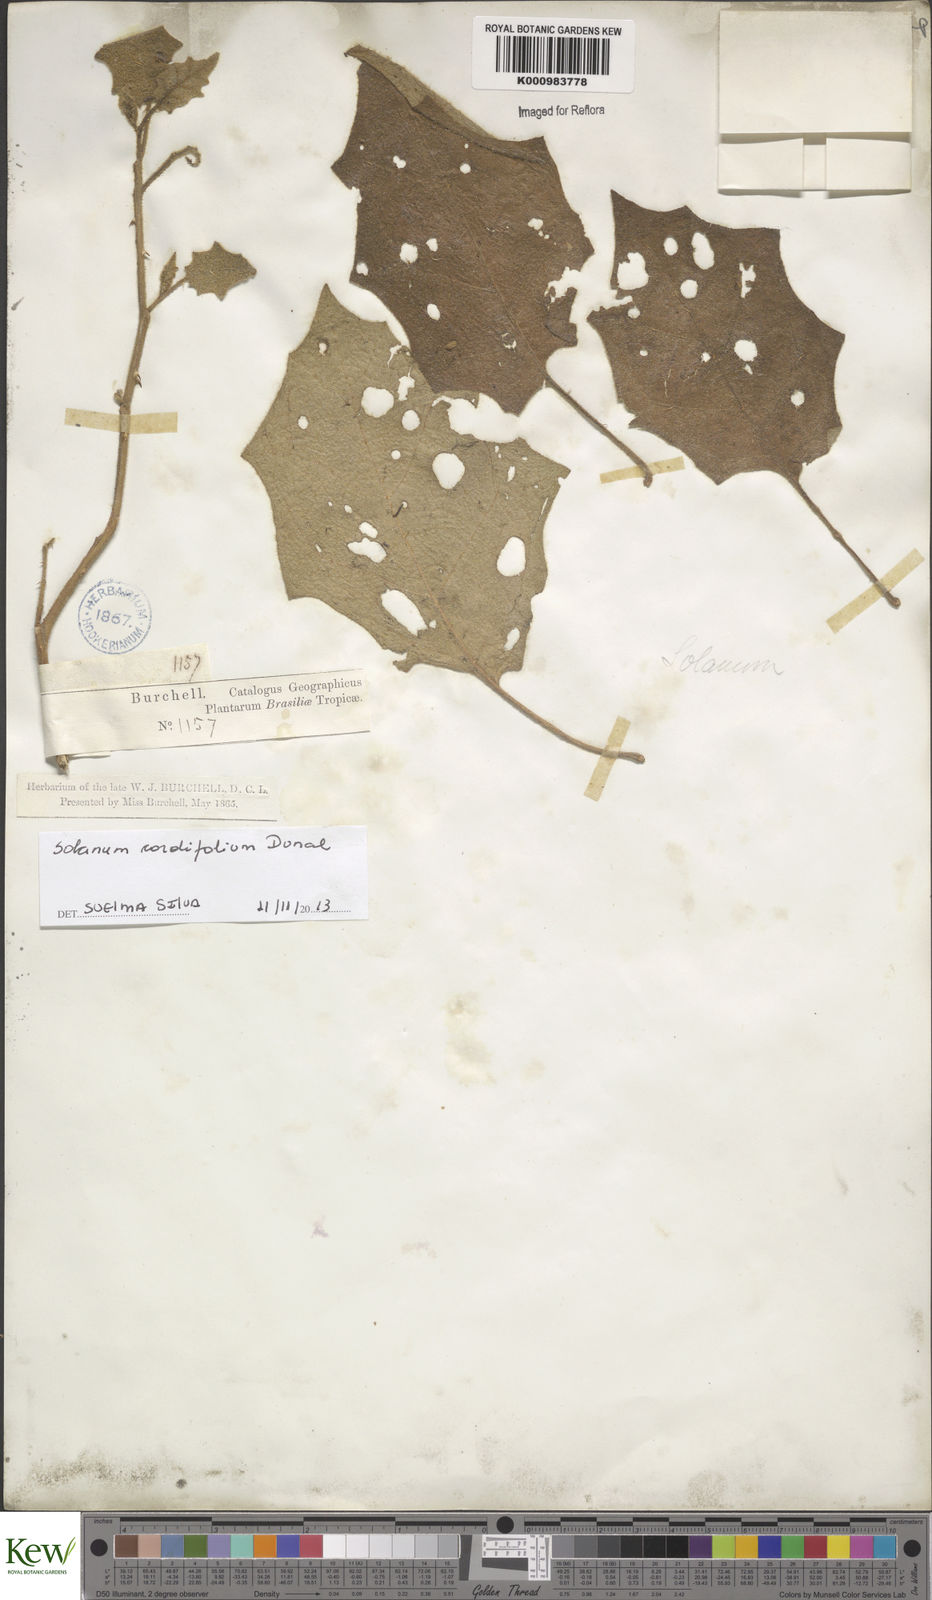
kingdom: Plantae
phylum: Tracheophyta
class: Magnoliopsida
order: Solanales
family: Solanaceae
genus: Solanum
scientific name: Solanum cordifolium
